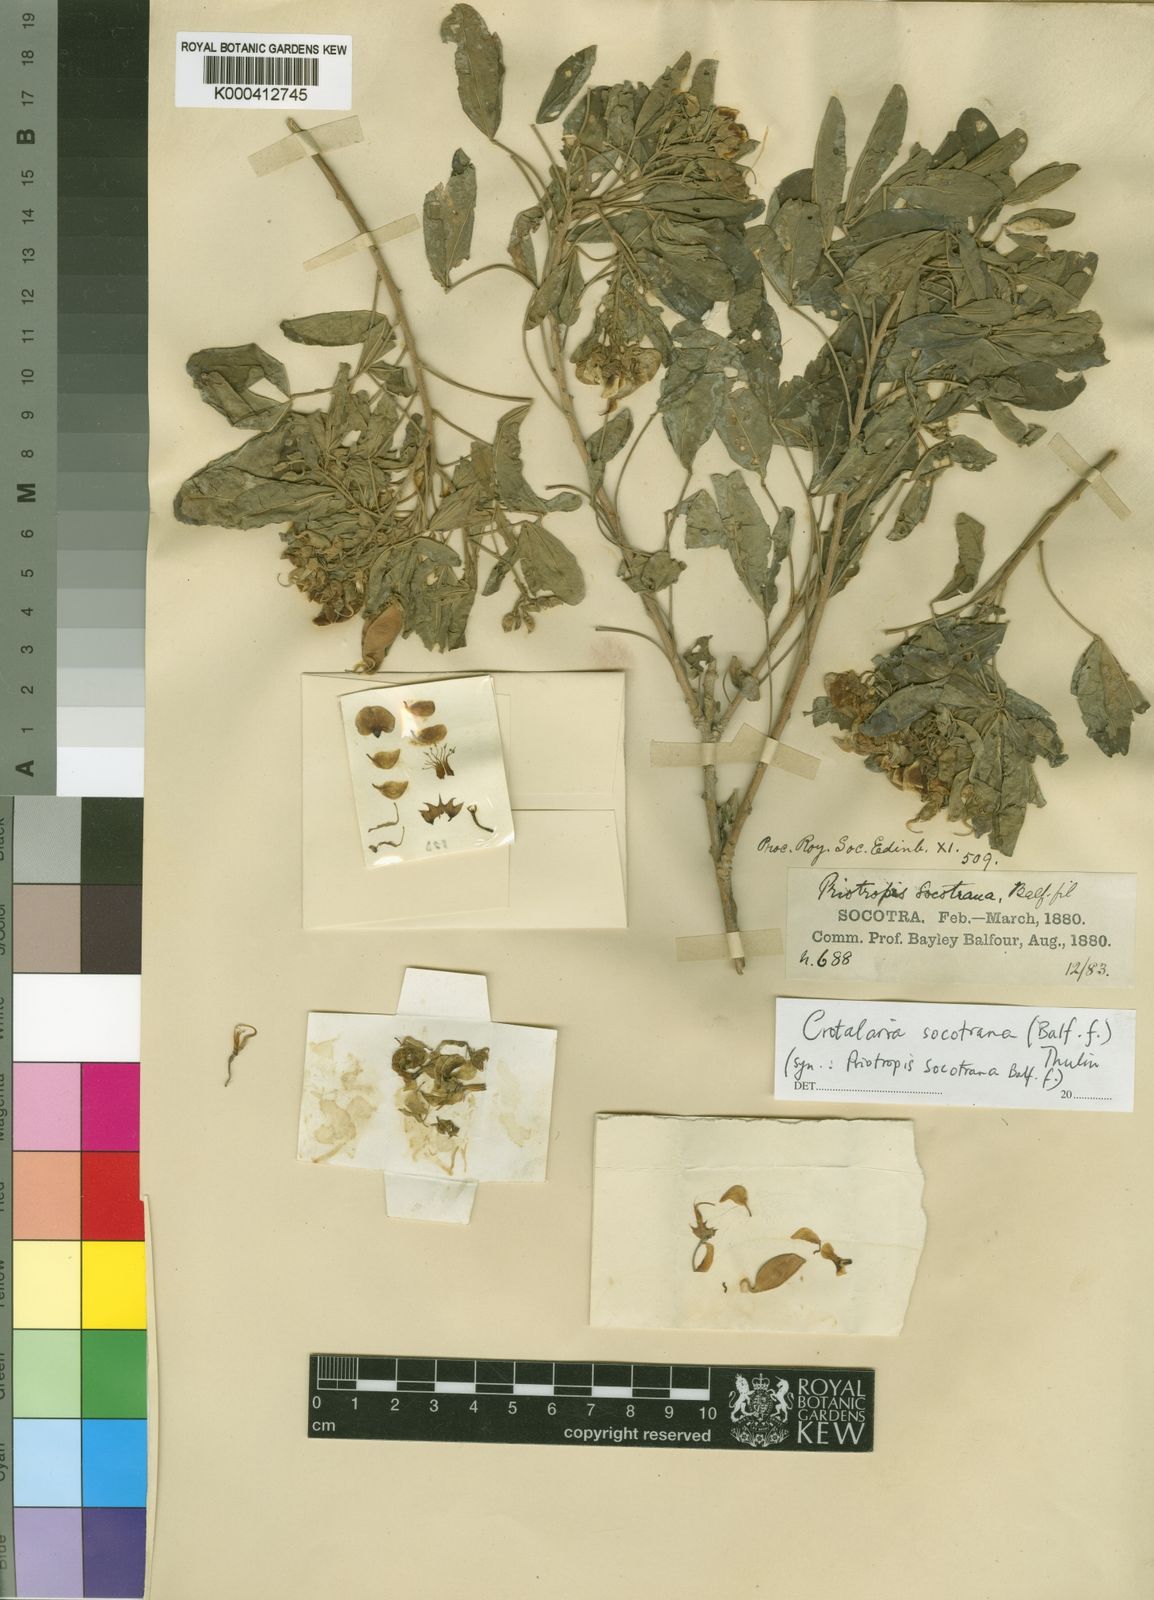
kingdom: Plantae
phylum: Tracheophyta
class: Magnoliopsida
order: Fabales
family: Fabaceae
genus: Crotalaria
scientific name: Crotalaria socotrana
